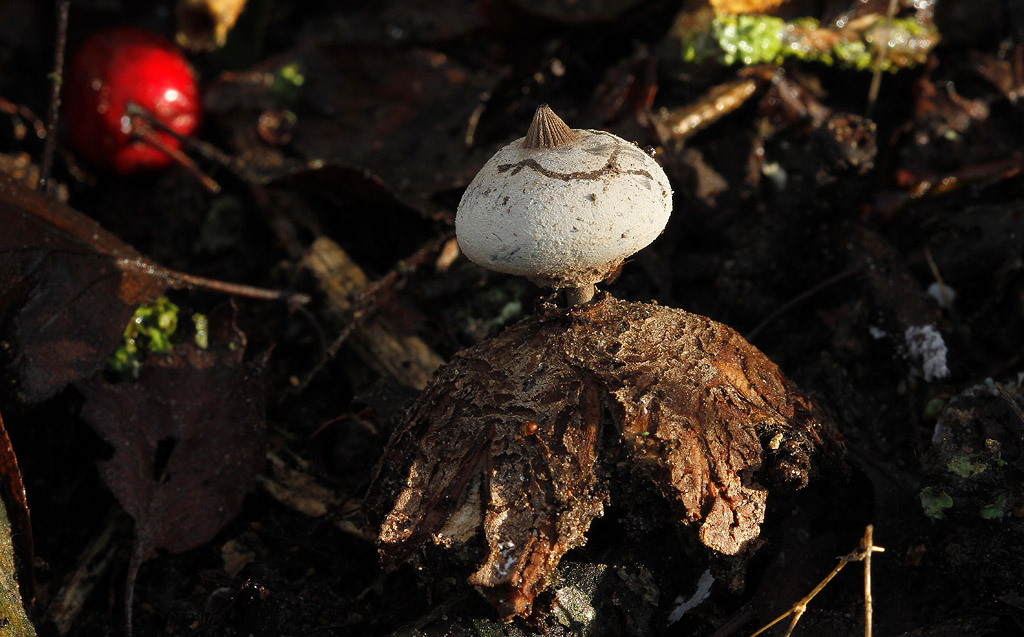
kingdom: Fungi
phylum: Basidiomycota
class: Agaricomycetes
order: Geastrales
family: Geastraceae
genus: Geastrum
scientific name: Geastrum striatum
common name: krave-stjernebold
